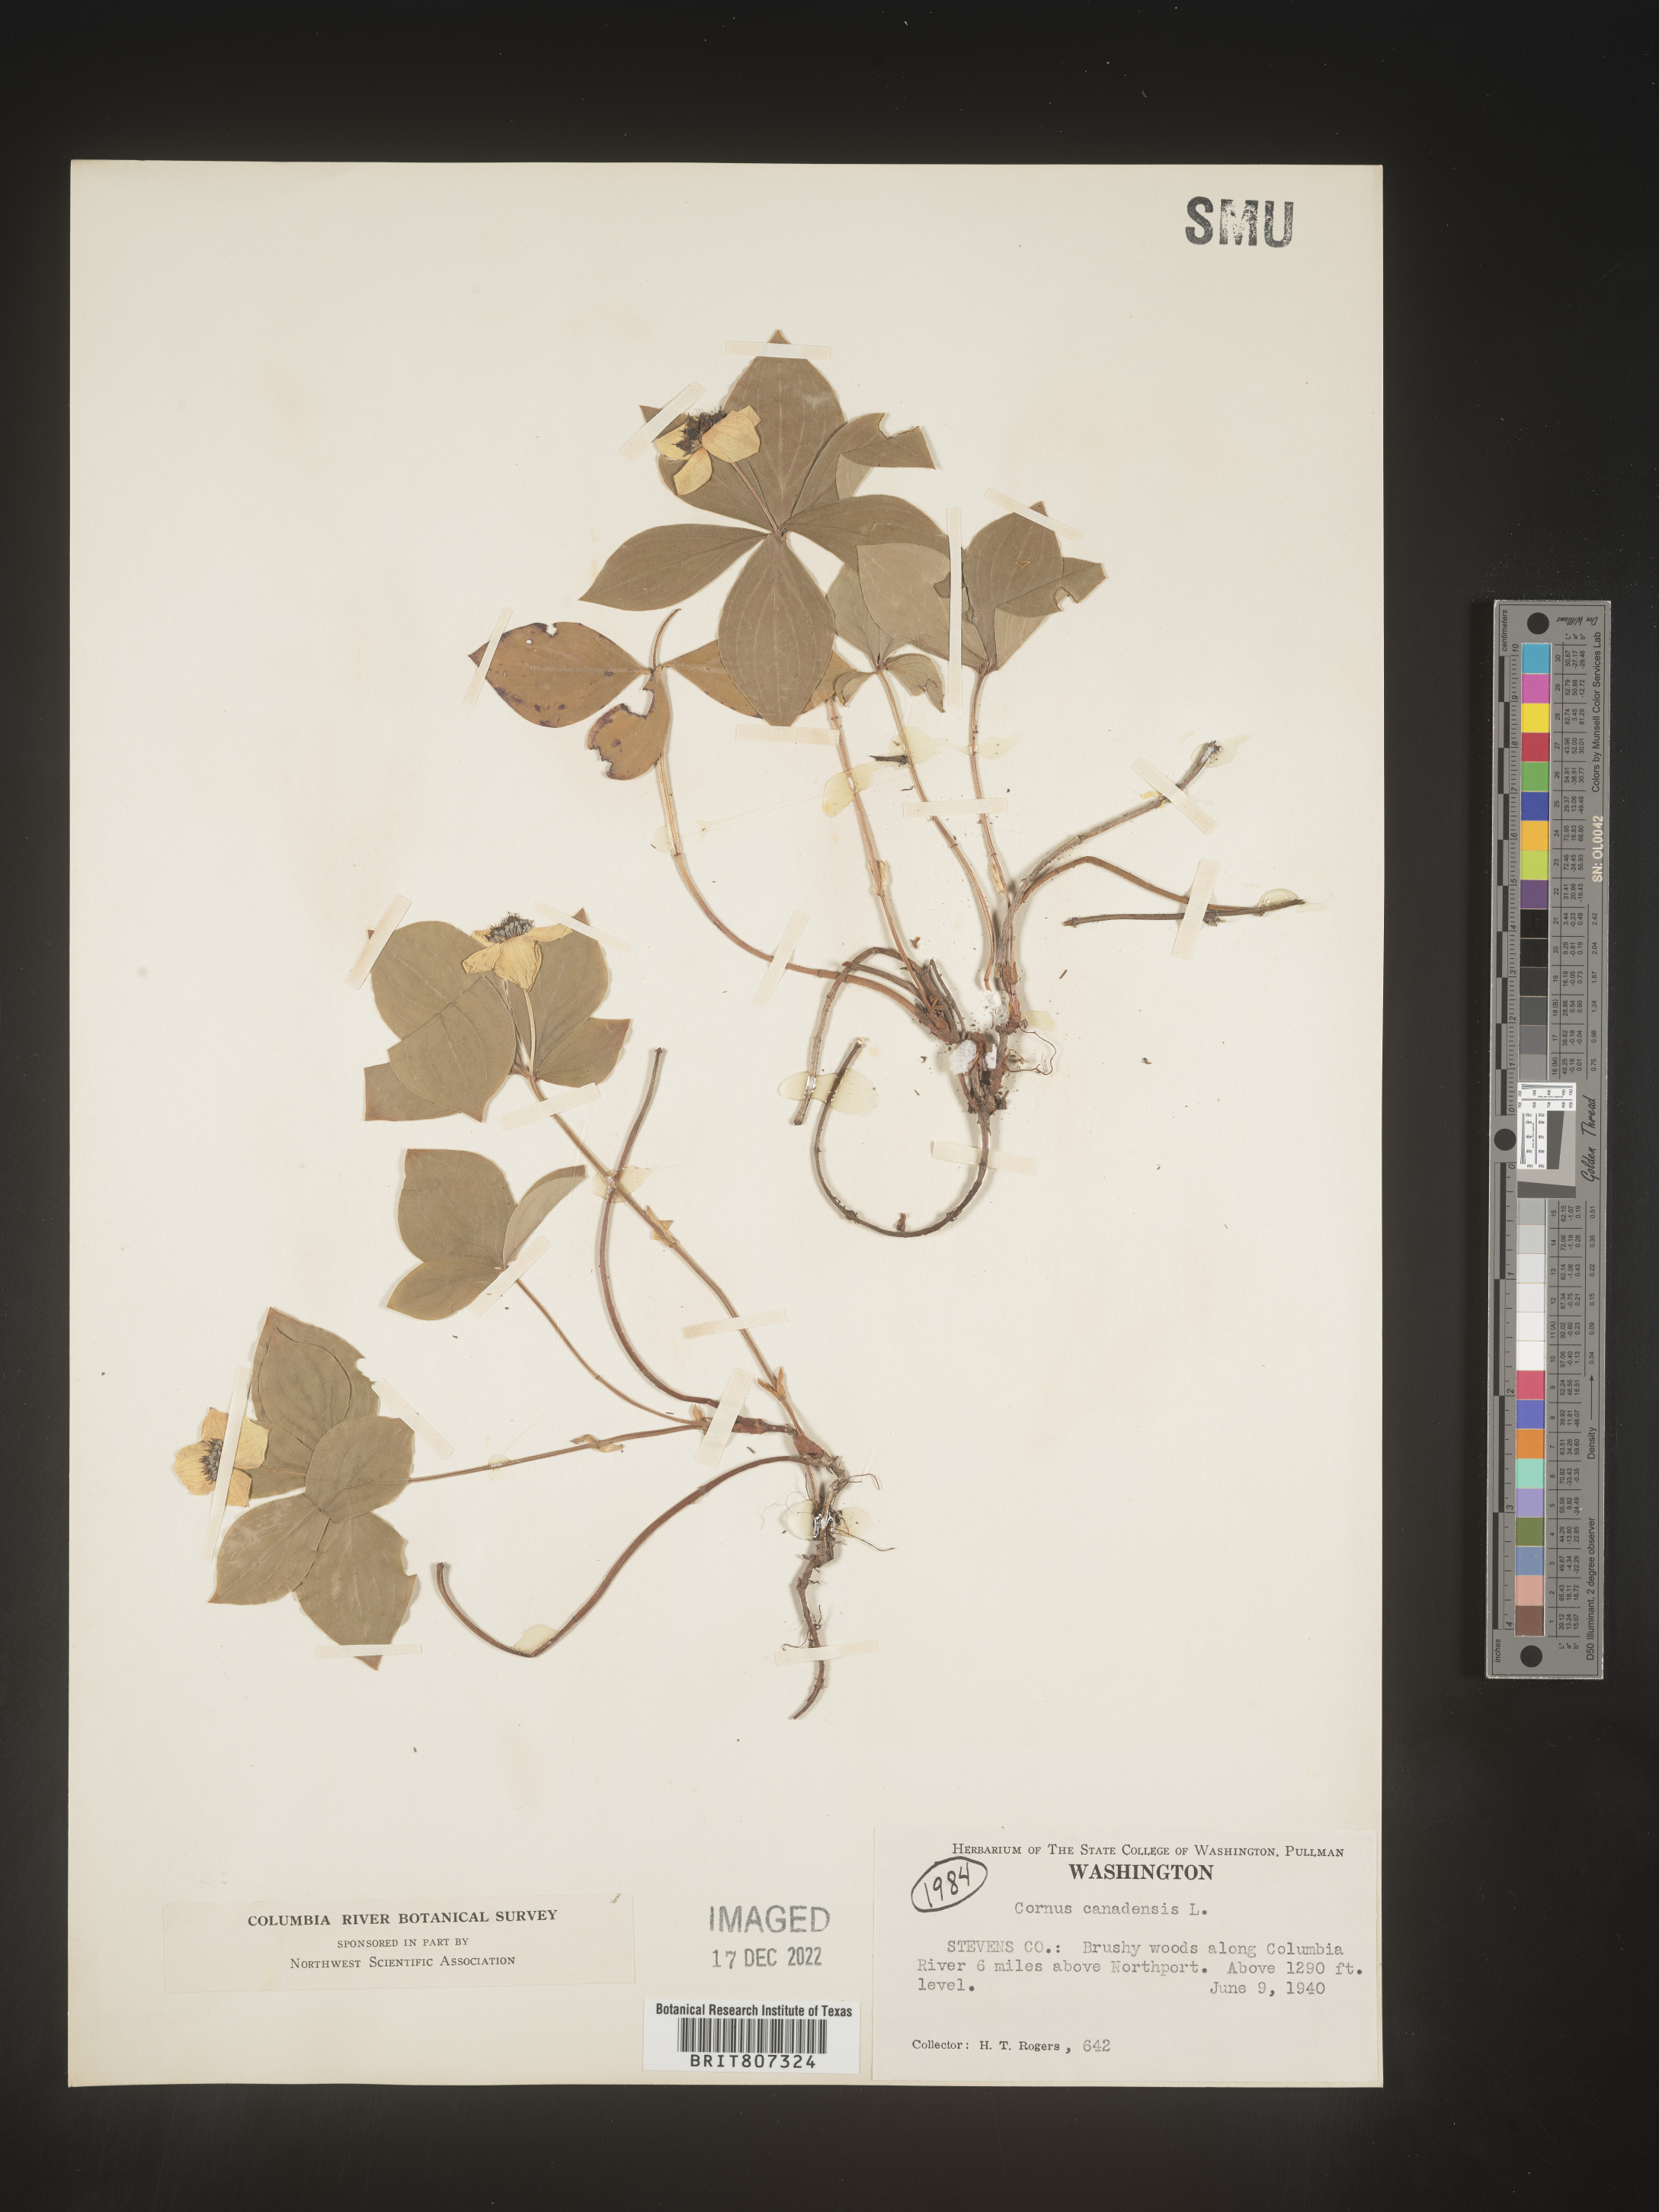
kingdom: Plantae
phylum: Tracheophyta
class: Magnoliopsida
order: Cornales
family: Cornaceae
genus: Cornus
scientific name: Cornus canadensis
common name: Creeping dogwood
